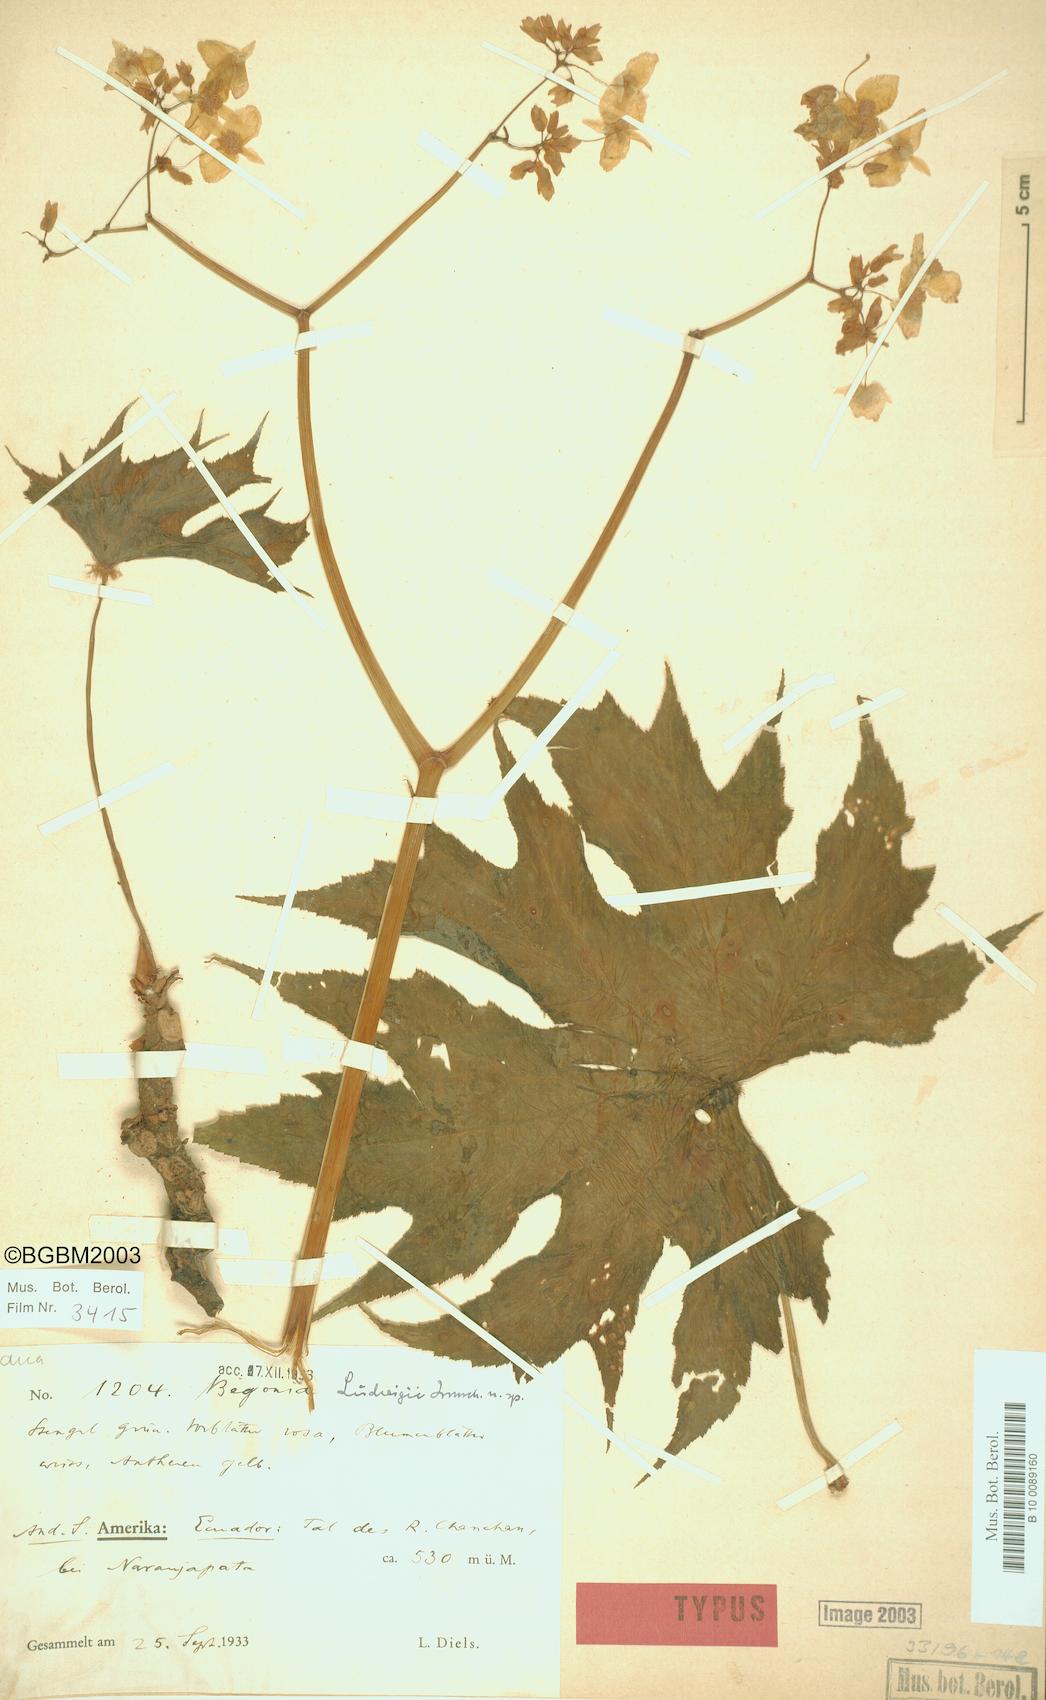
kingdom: Plantae
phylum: Tracheophyta
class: Magnoliopsida
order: Cucurbitales
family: Begoniaceae
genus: Begonia
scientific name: Begonia ludwigii
